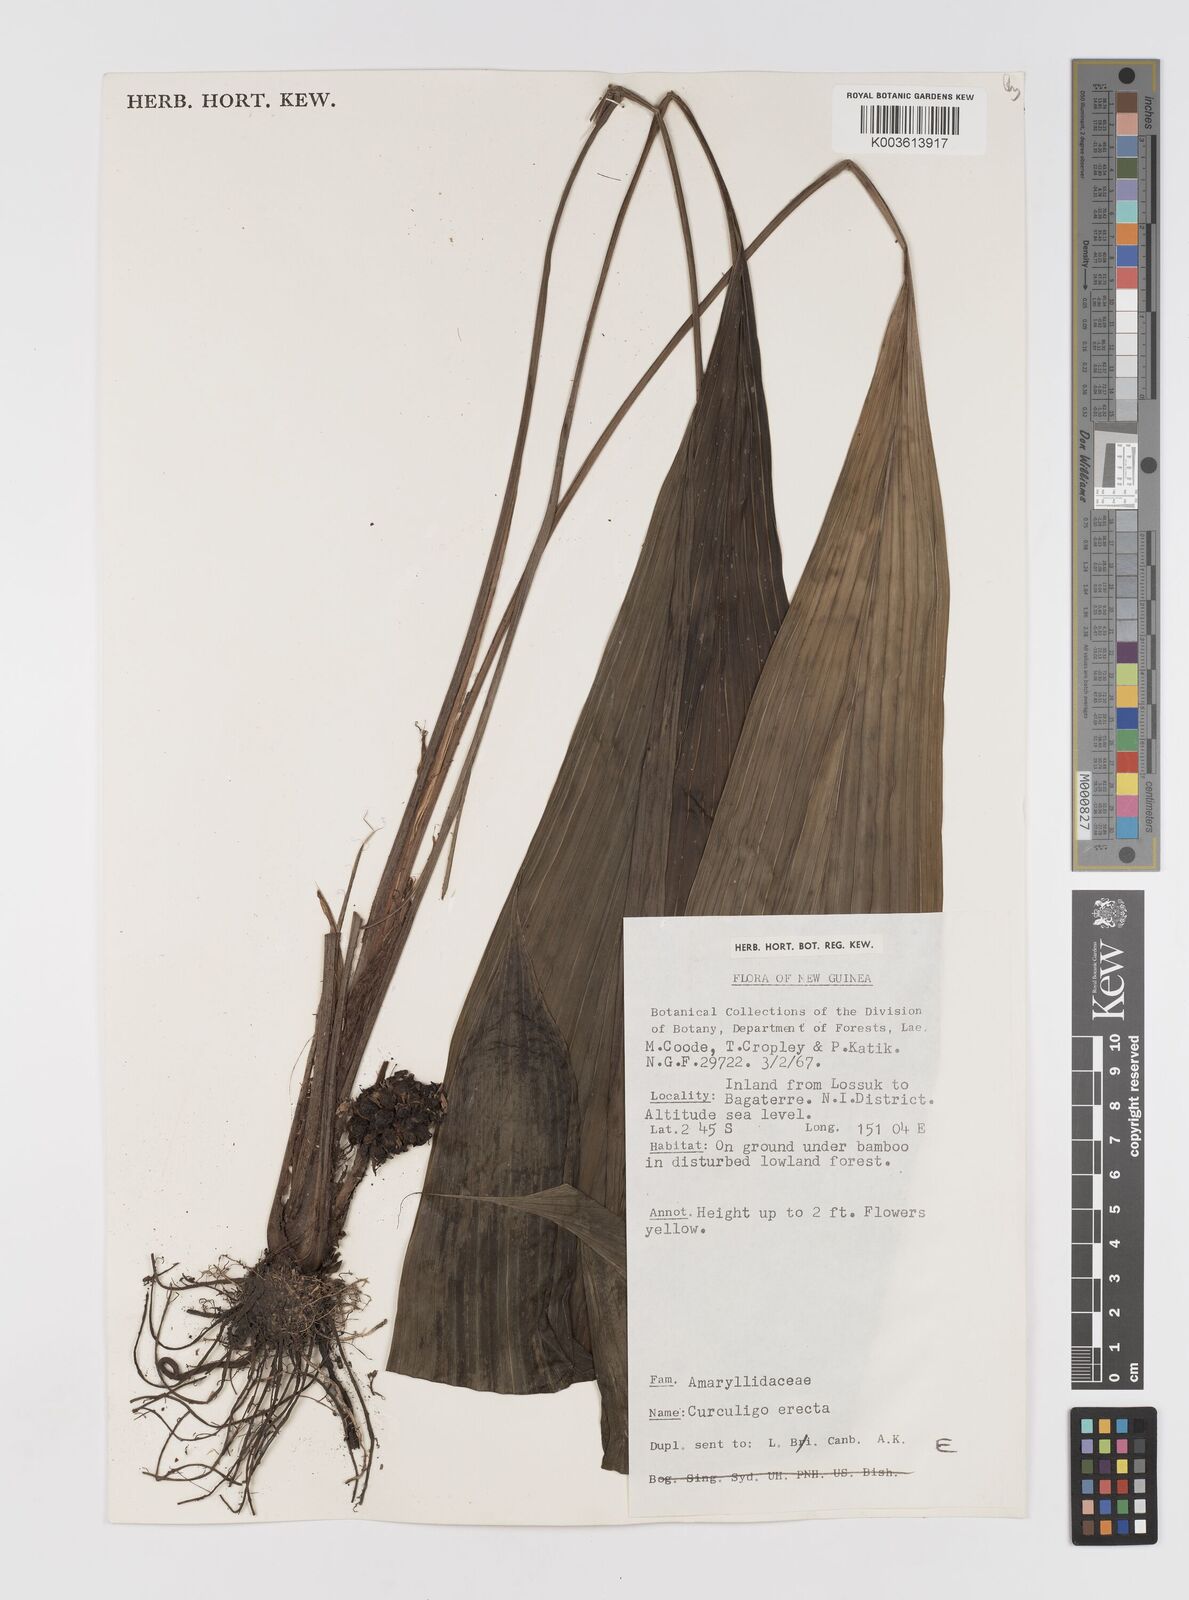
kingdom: Plantae
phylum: Tracheophyta
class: Liliopsida
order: Asparagales
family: Hypoxidaceae
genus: Curculigo
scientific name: Curculigo
